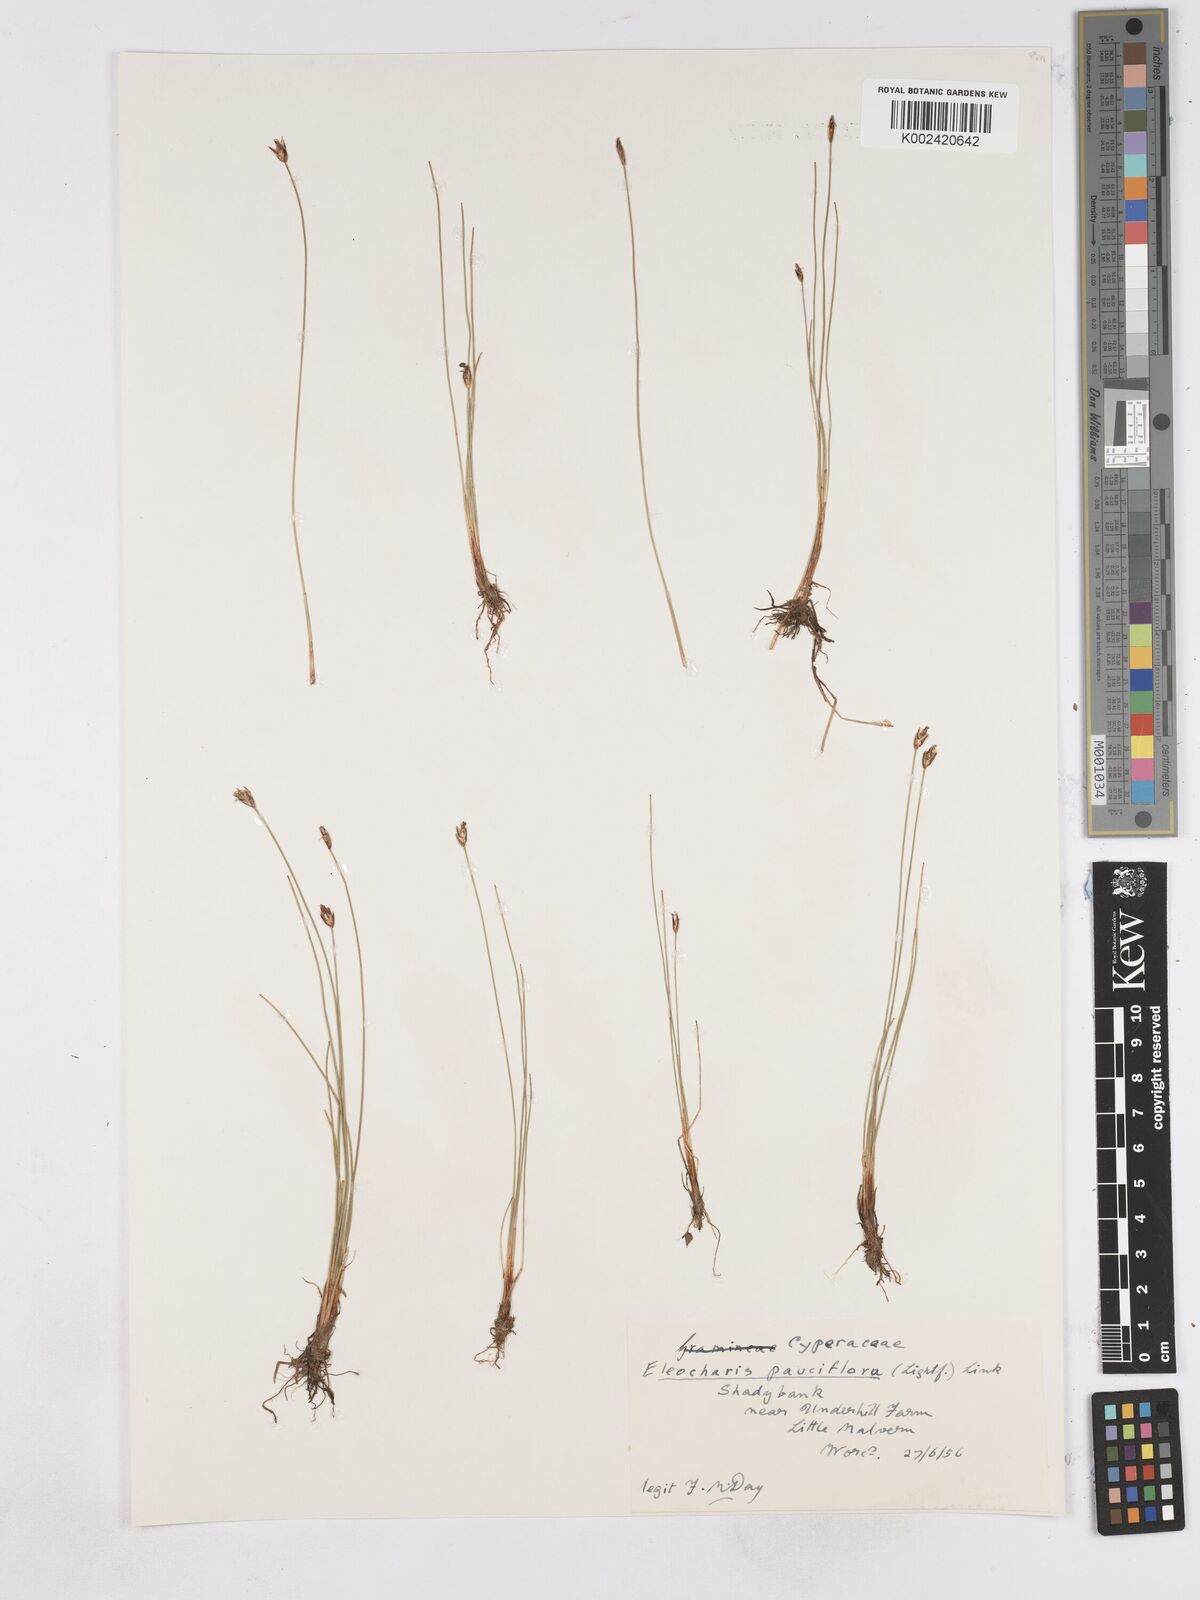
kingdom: Plantae
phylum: Tracheophyta
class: Liliopsida
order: Poales
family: Cyperaceae
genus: Eleocharis
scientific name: Eleocharis quinqueflora
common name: Few-flowered spike-rush
